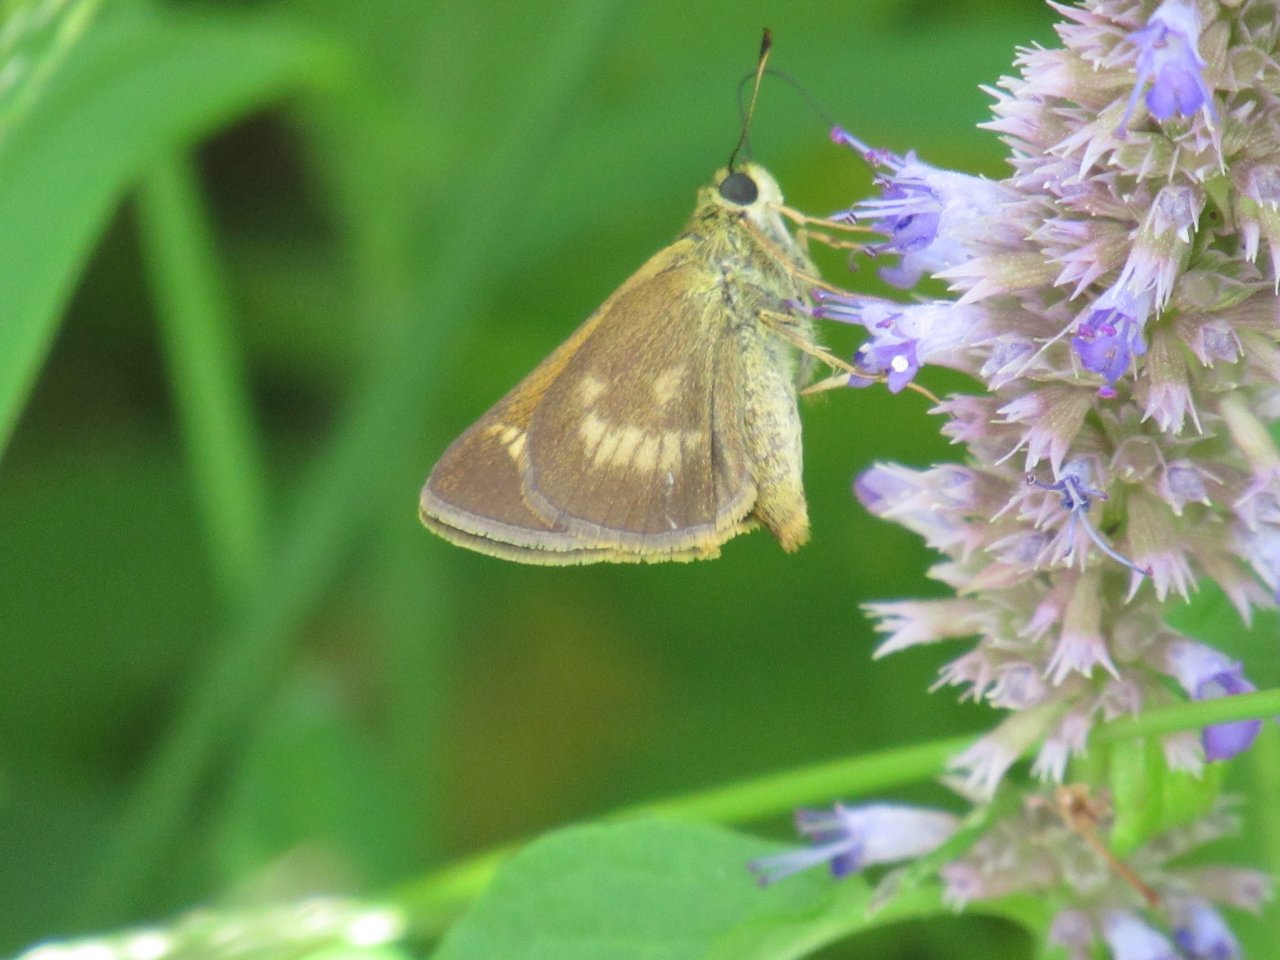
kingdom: Animalia
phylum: Arthropoda
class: Insecta
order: Lepidoptera
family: Hesperiidae
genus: Polites
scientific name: Polites egeremet
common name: Northern Broken-Dash
